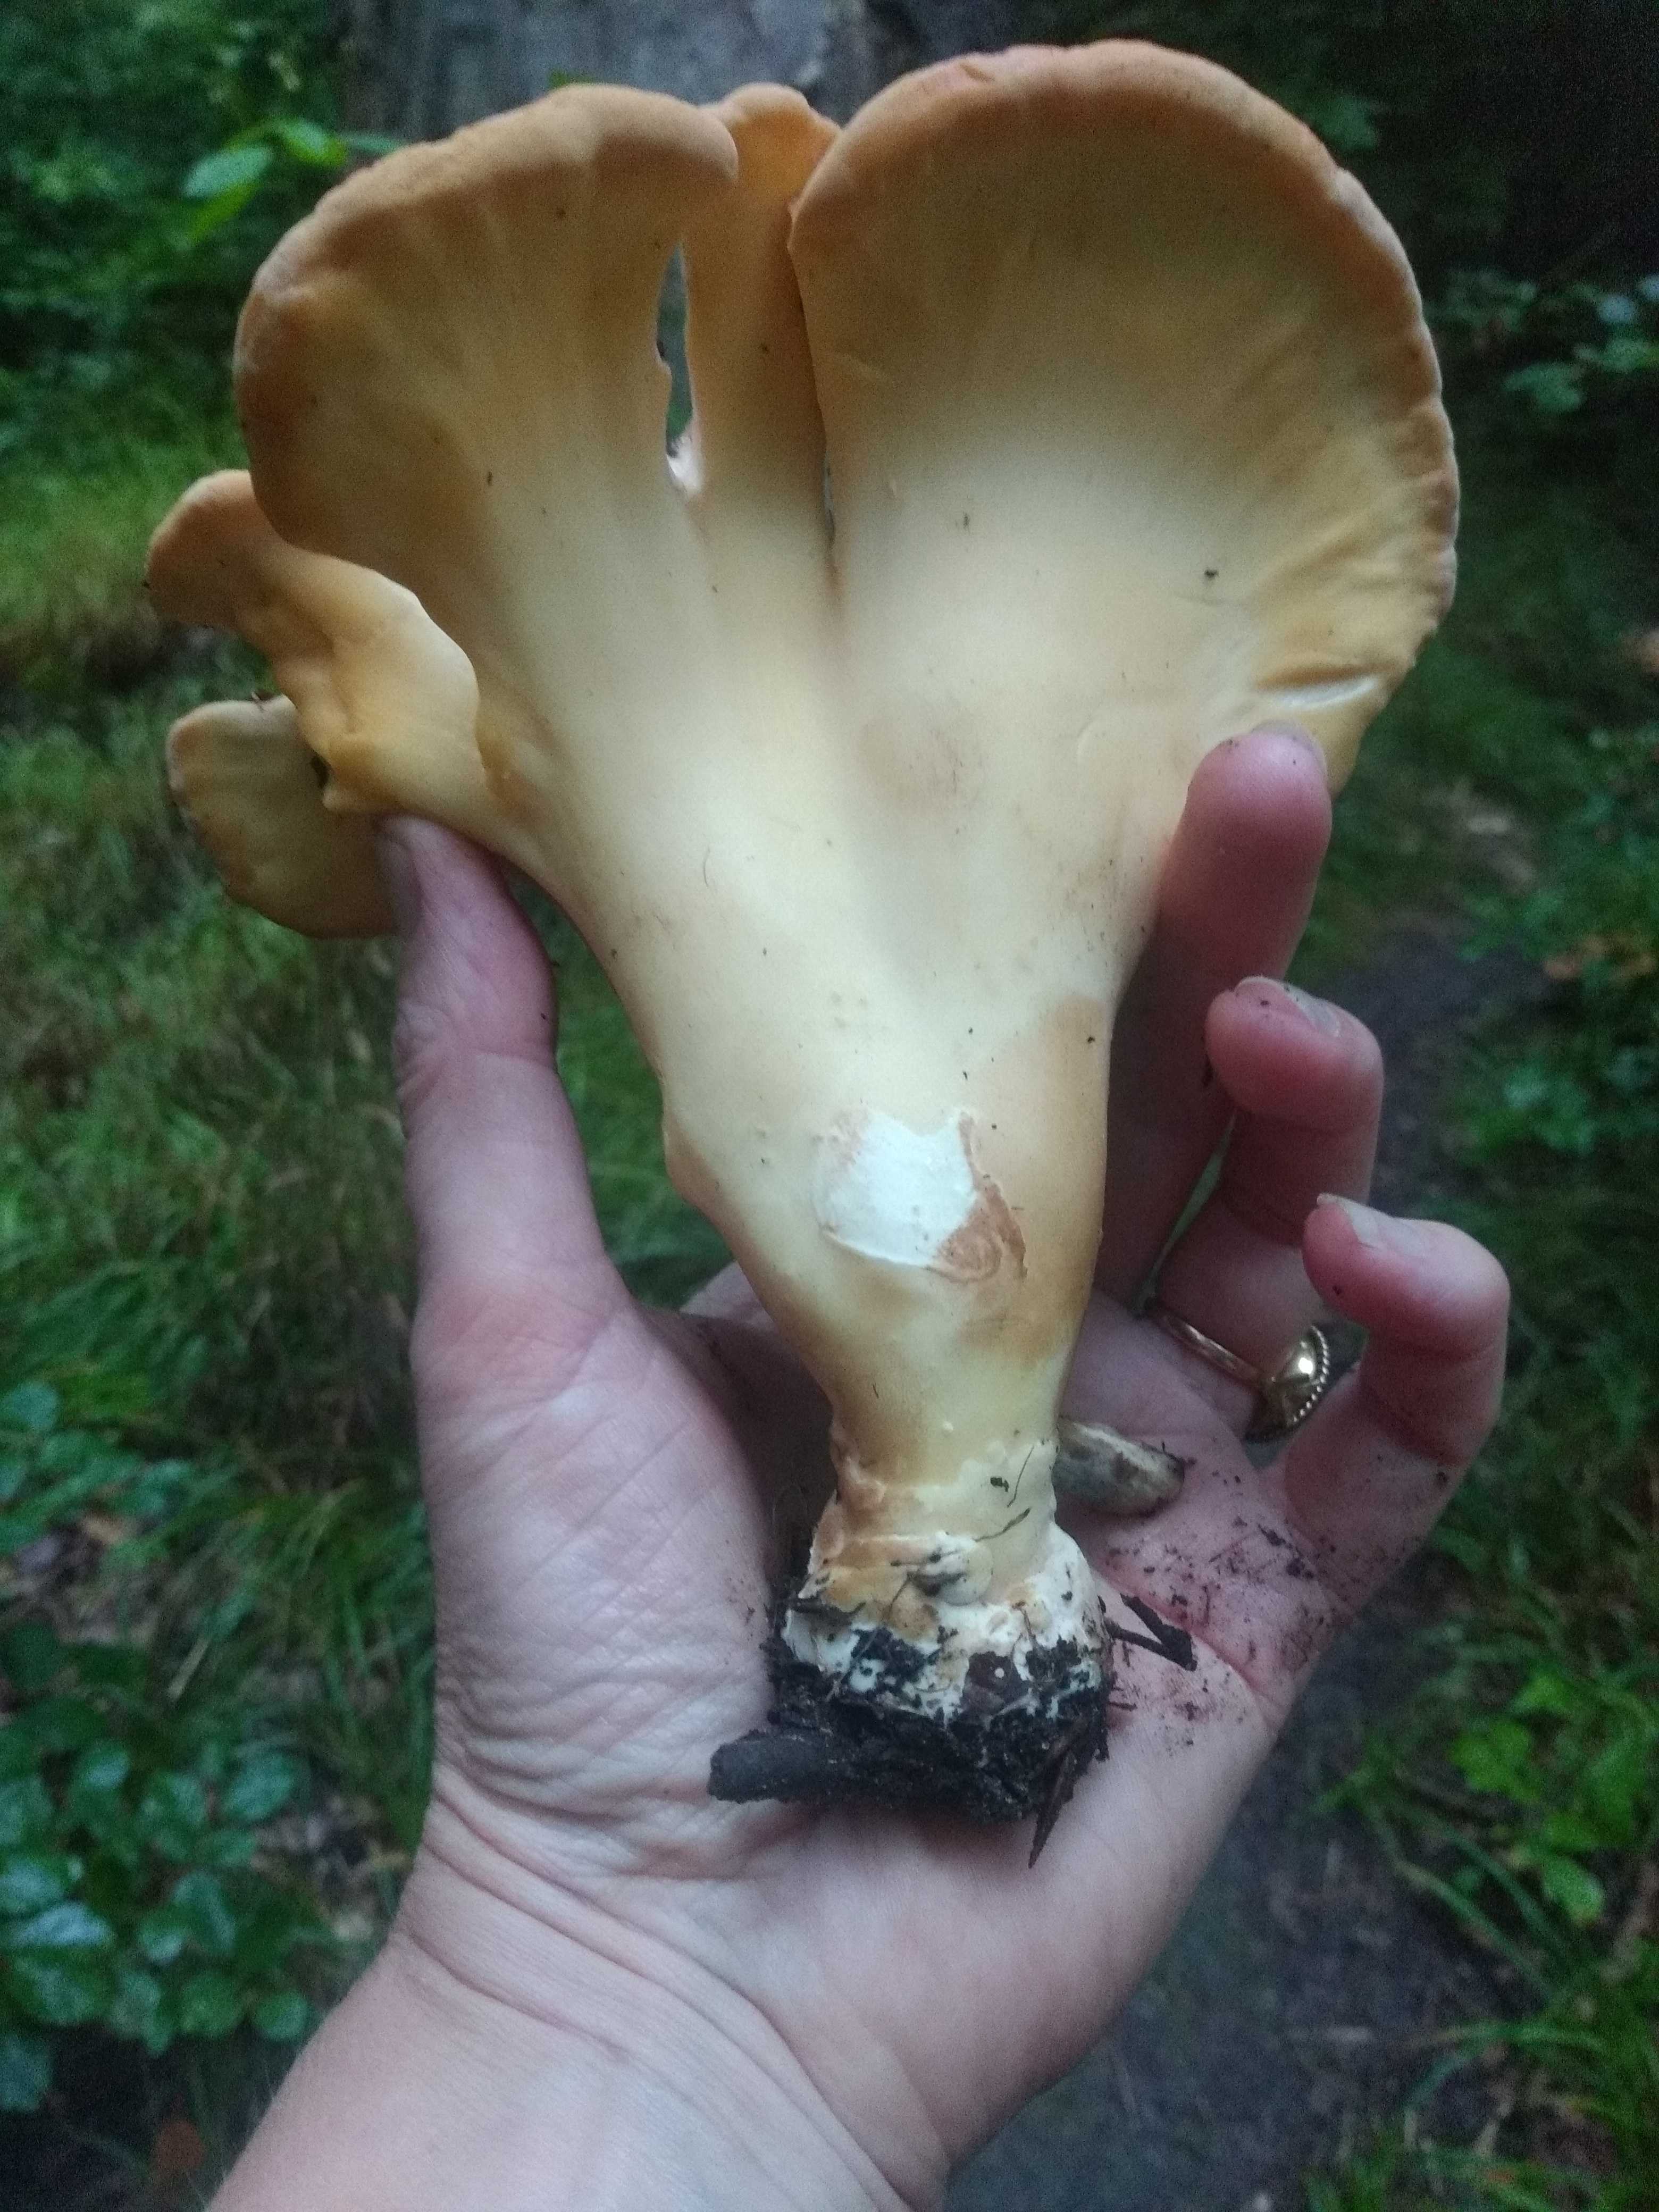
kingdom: Fungi
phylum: Basidiomycota
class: Agaricomycetes
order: Polyporales
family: Meripilaceae
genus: Meripilus
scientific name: Meripilus giganteus
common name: kæmpeporesvamp
